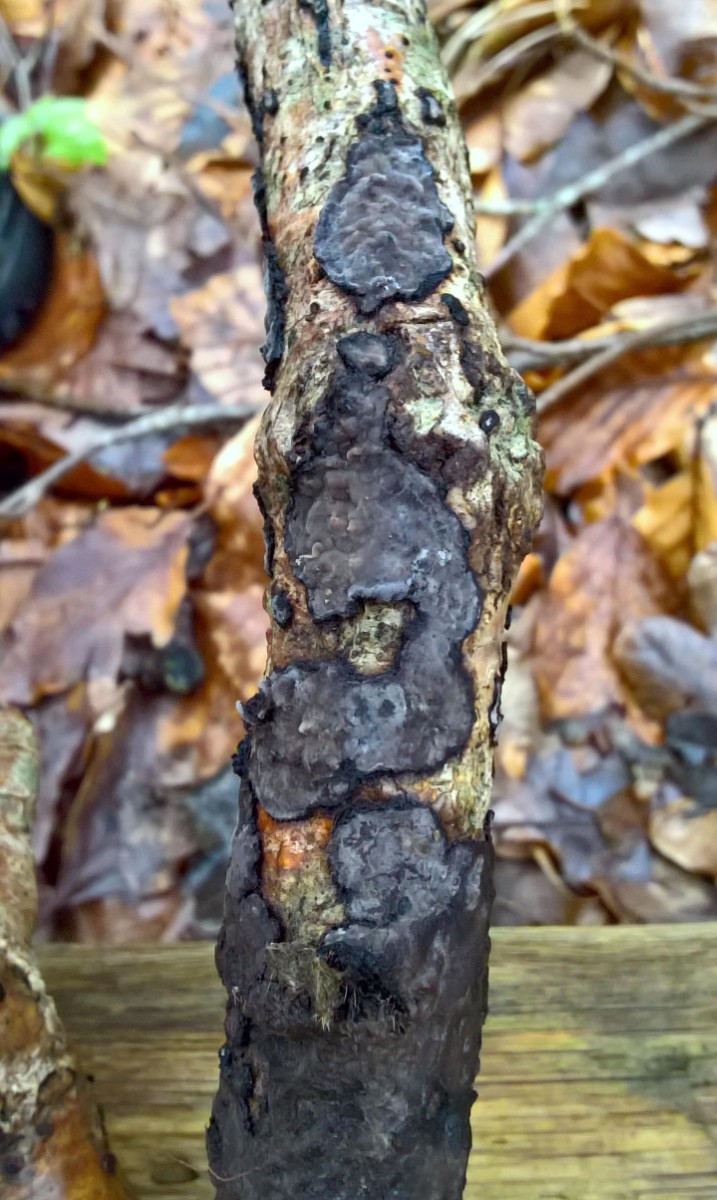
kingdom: Fungi
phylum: Basidiomycota
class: Agaricomycetes
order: Russulales
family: Peniophoraceae
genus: Peniophora
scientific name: Peniophora limitata
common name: mørkrandet voksskind
